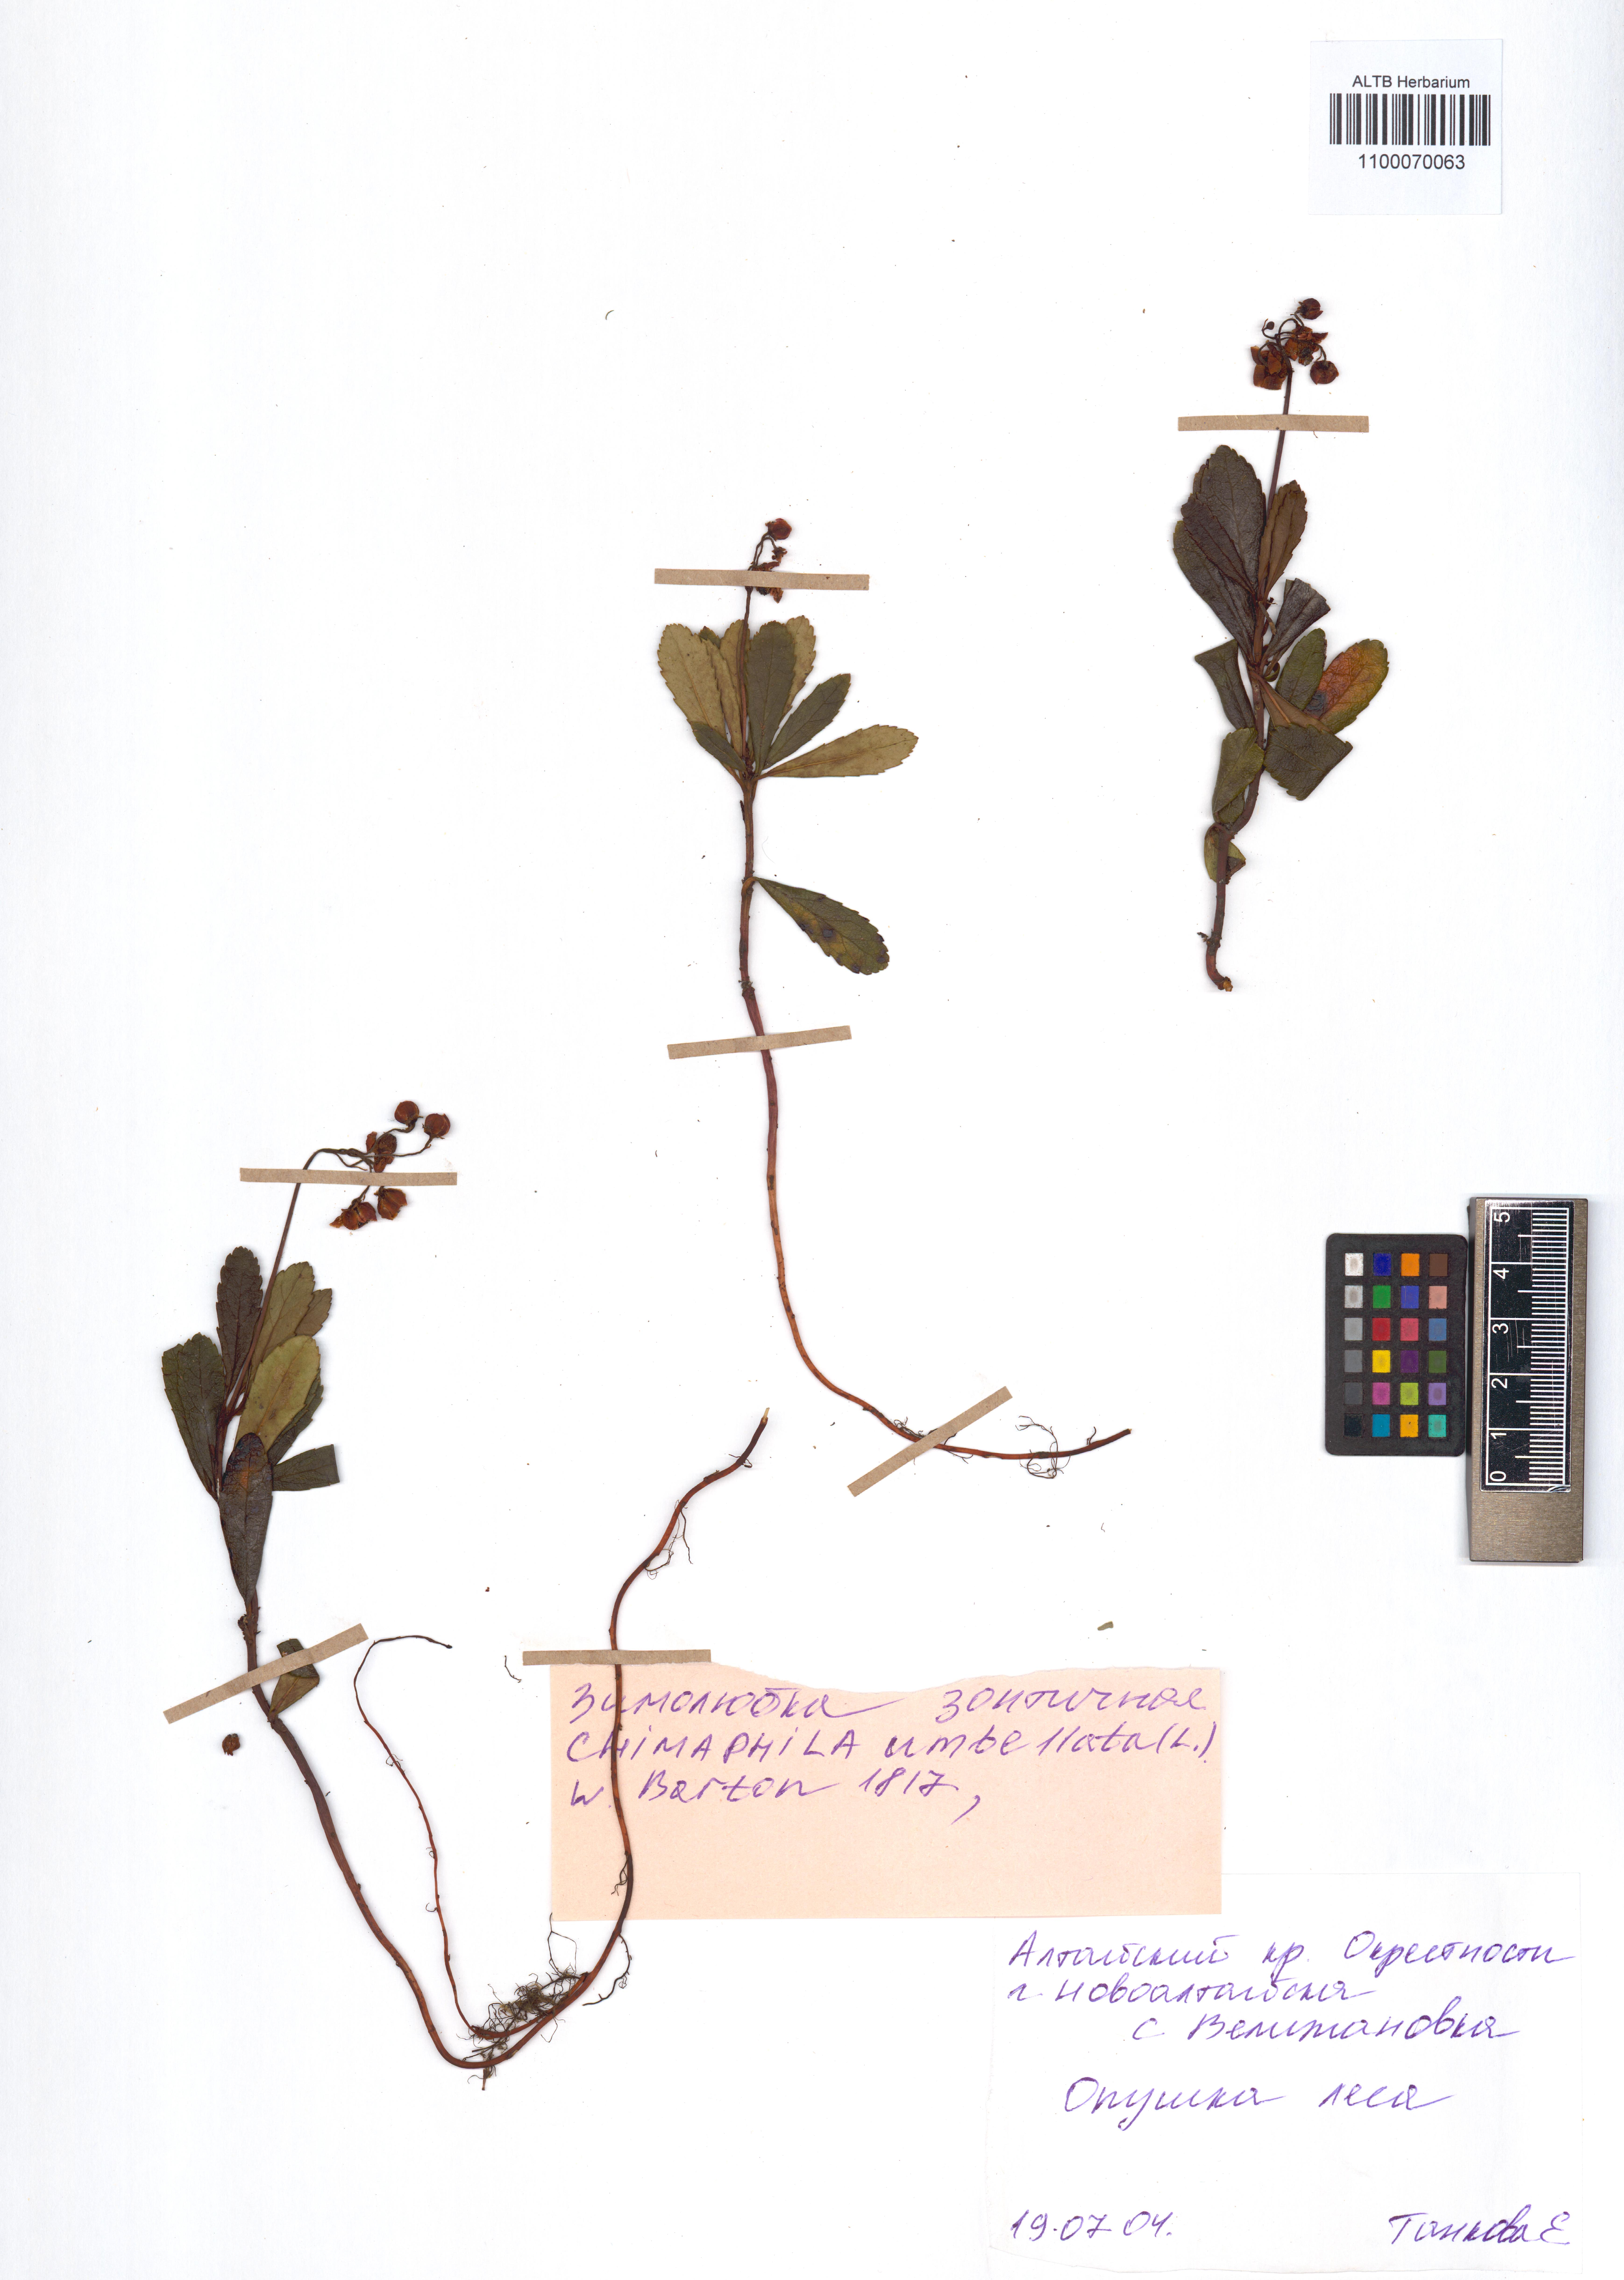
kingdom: Plantae
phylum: Tracheophyta
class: Magnoliopsida
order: Ericales
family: Ericaceae
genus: Chimaphila
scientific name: Chimaphila umbellata
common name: Pipsissewa
